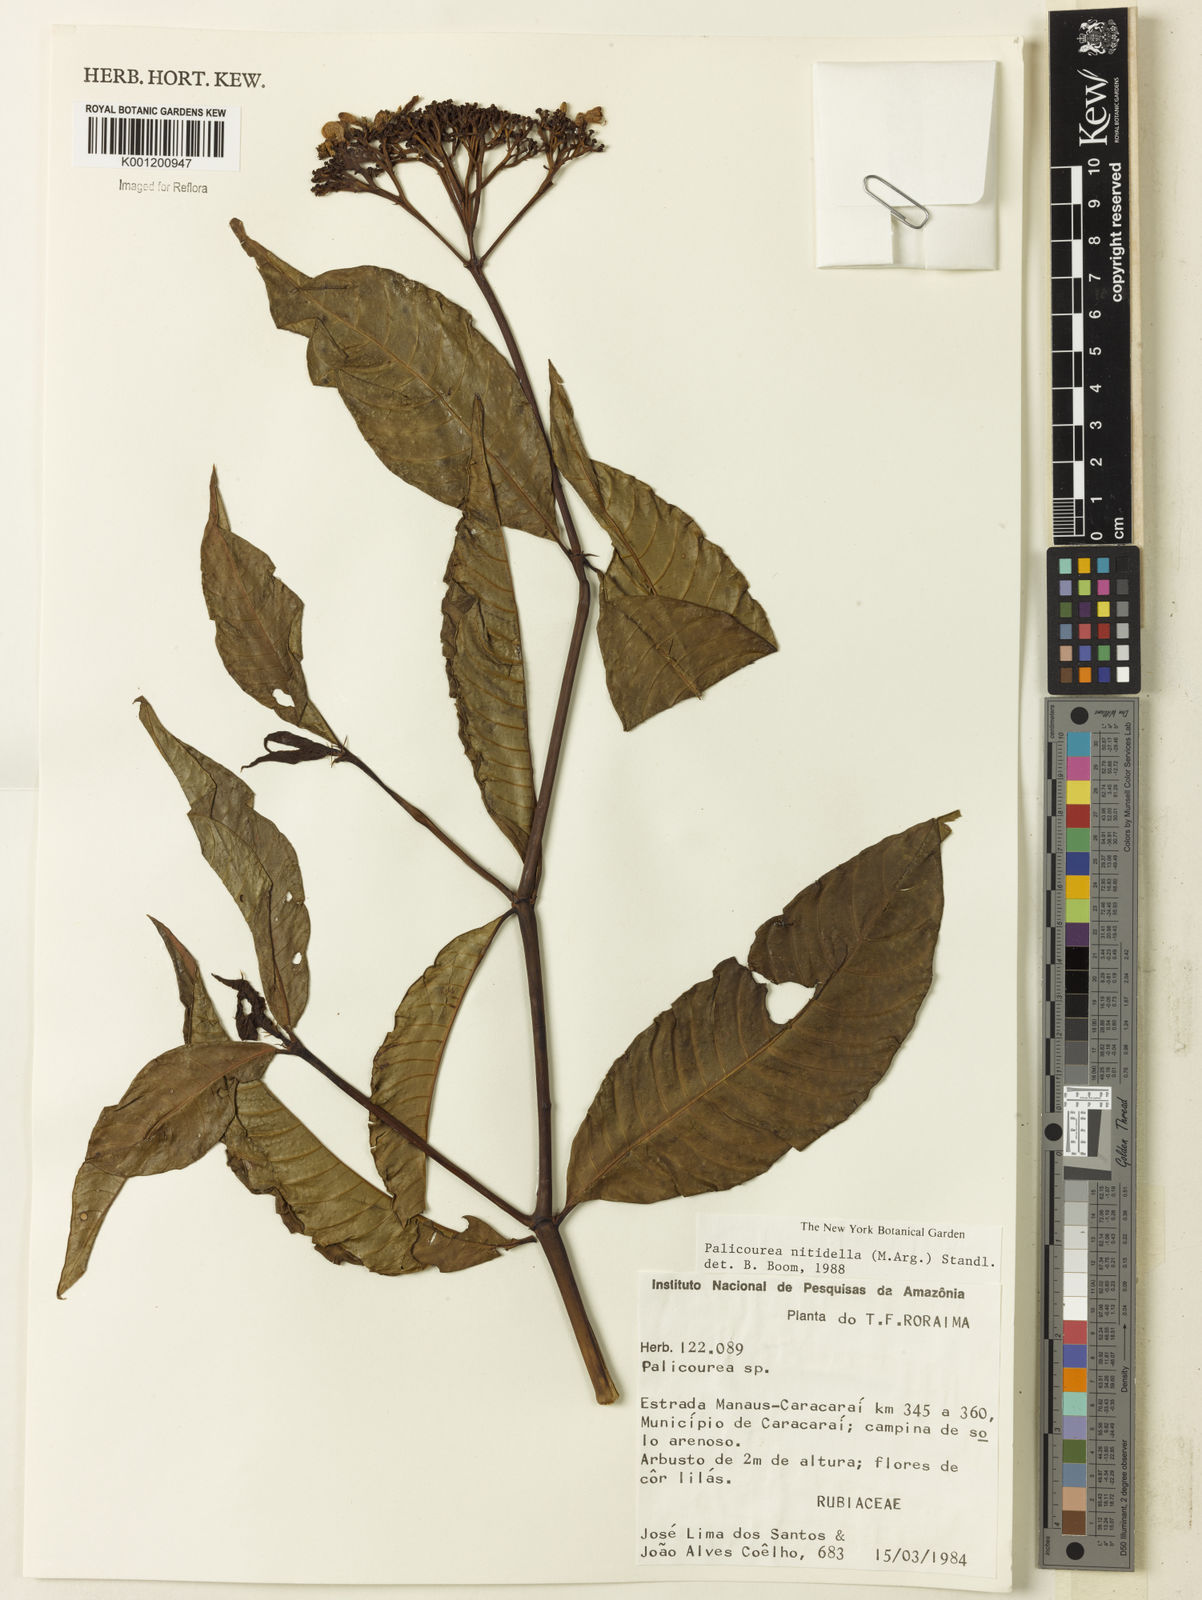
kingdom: Plantae
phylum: Tracheophyta
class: Magnoliopsida
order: Gentianales
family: Rubiaceae
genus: Palicourea
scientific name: Palicourea
